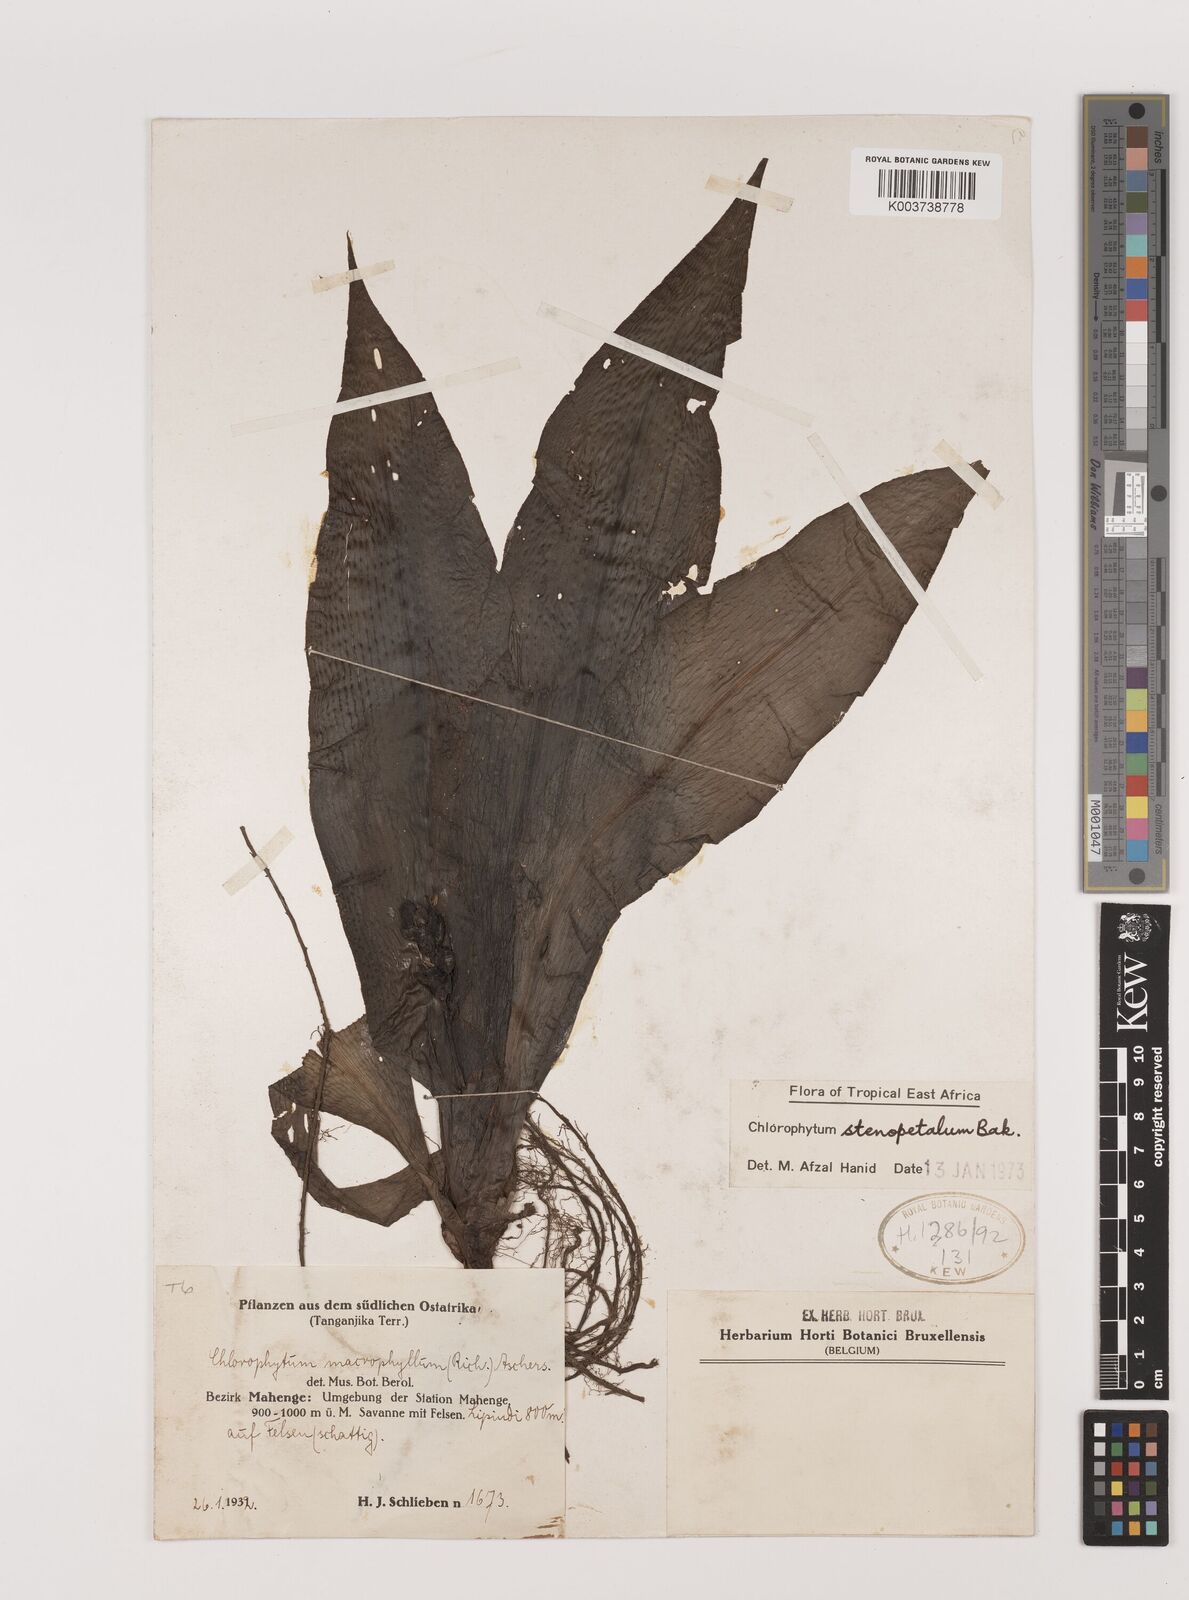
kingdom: Plantae
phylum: Tracheophyta
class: Liliopsida
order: Asparagales
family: Asparagaceae
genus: Chlorophytum
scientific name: Chlorophytum stenopetalum
